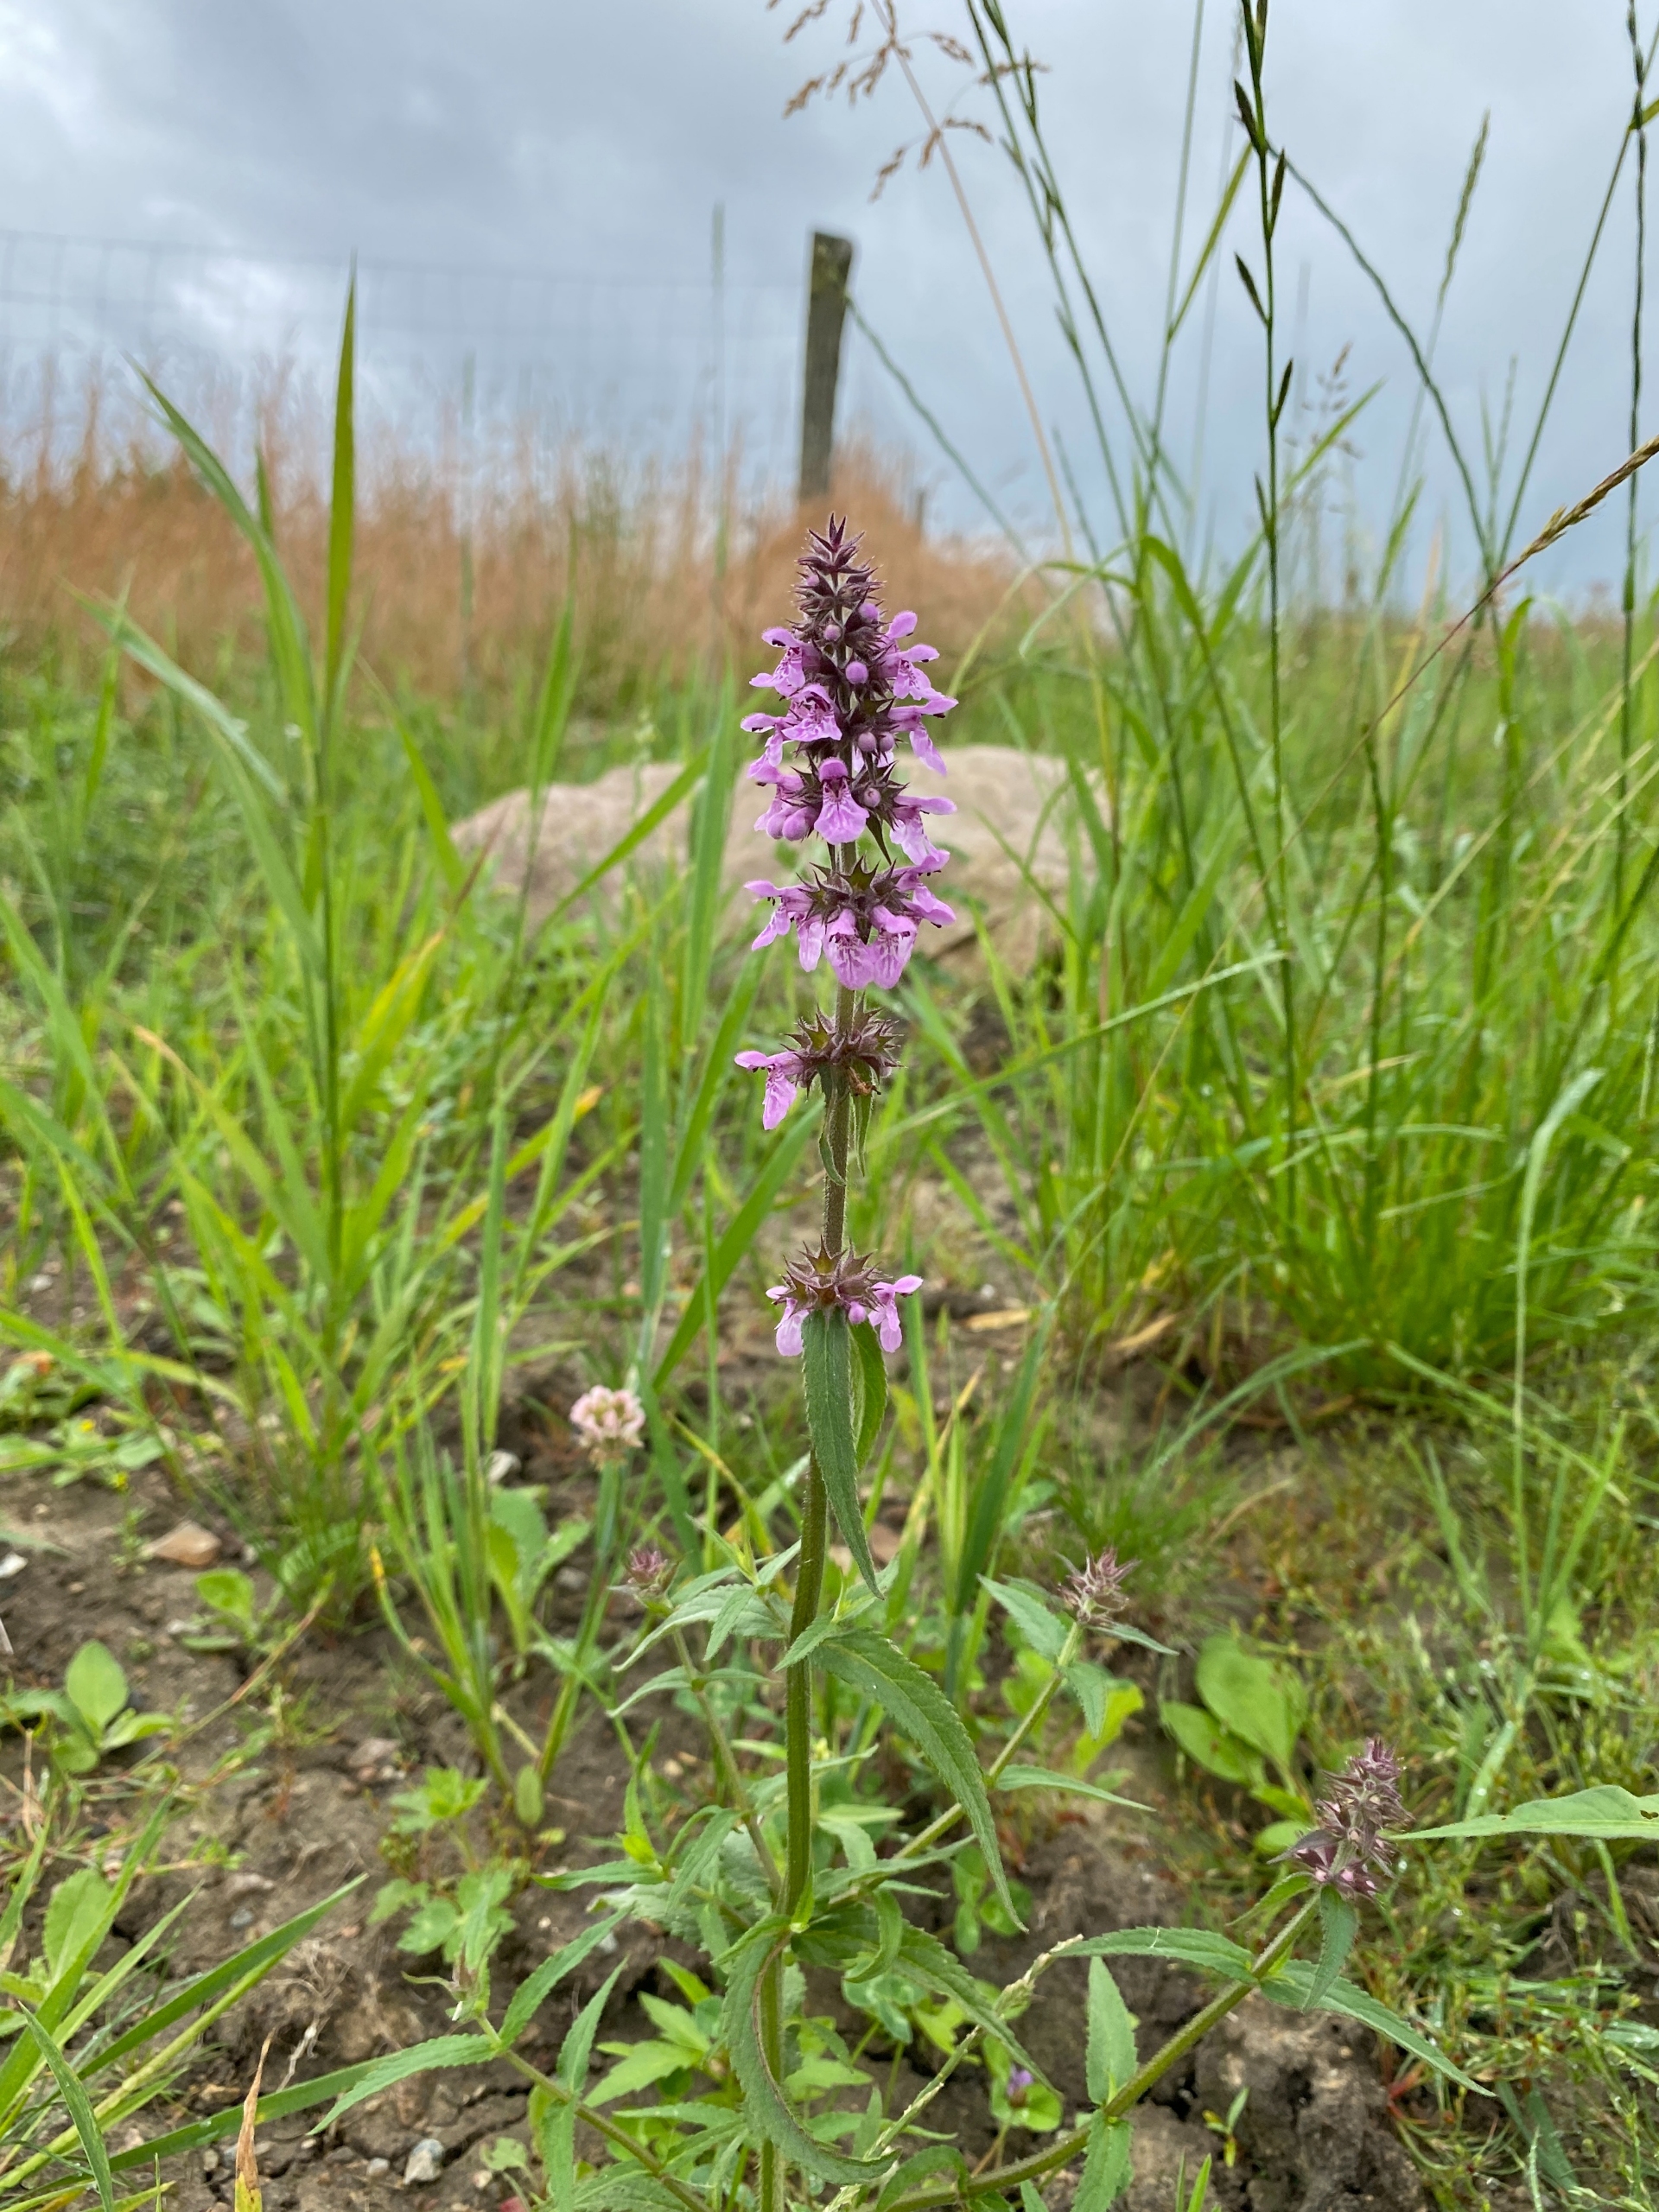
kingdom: Plantae
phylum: Tracheophyta
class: Magnoliopsida
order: Lamiales
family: Lamiaceae
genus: Stachys
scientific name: Stachys palustris
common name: Kær-galtetand
